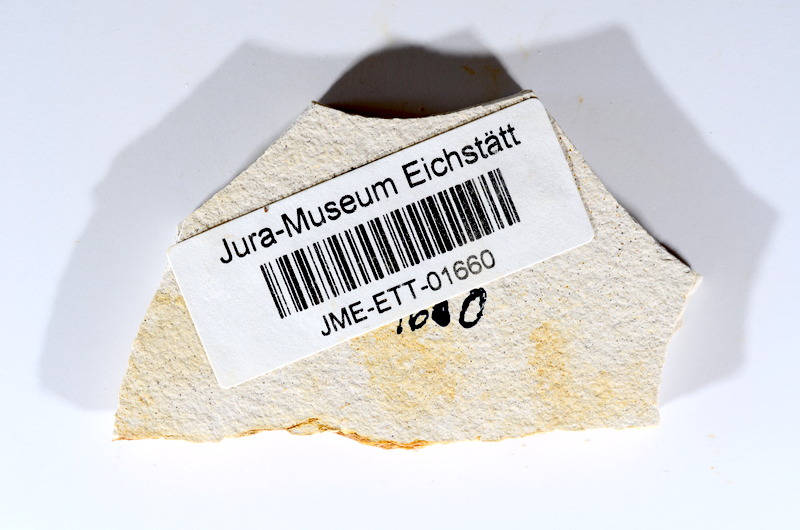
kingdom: Animalia
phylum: Chordata
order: Salmoniformes
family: Orthogonikleithridae
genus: Orthogonikleithrus
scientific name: Orthogonikleithrus hoelli
